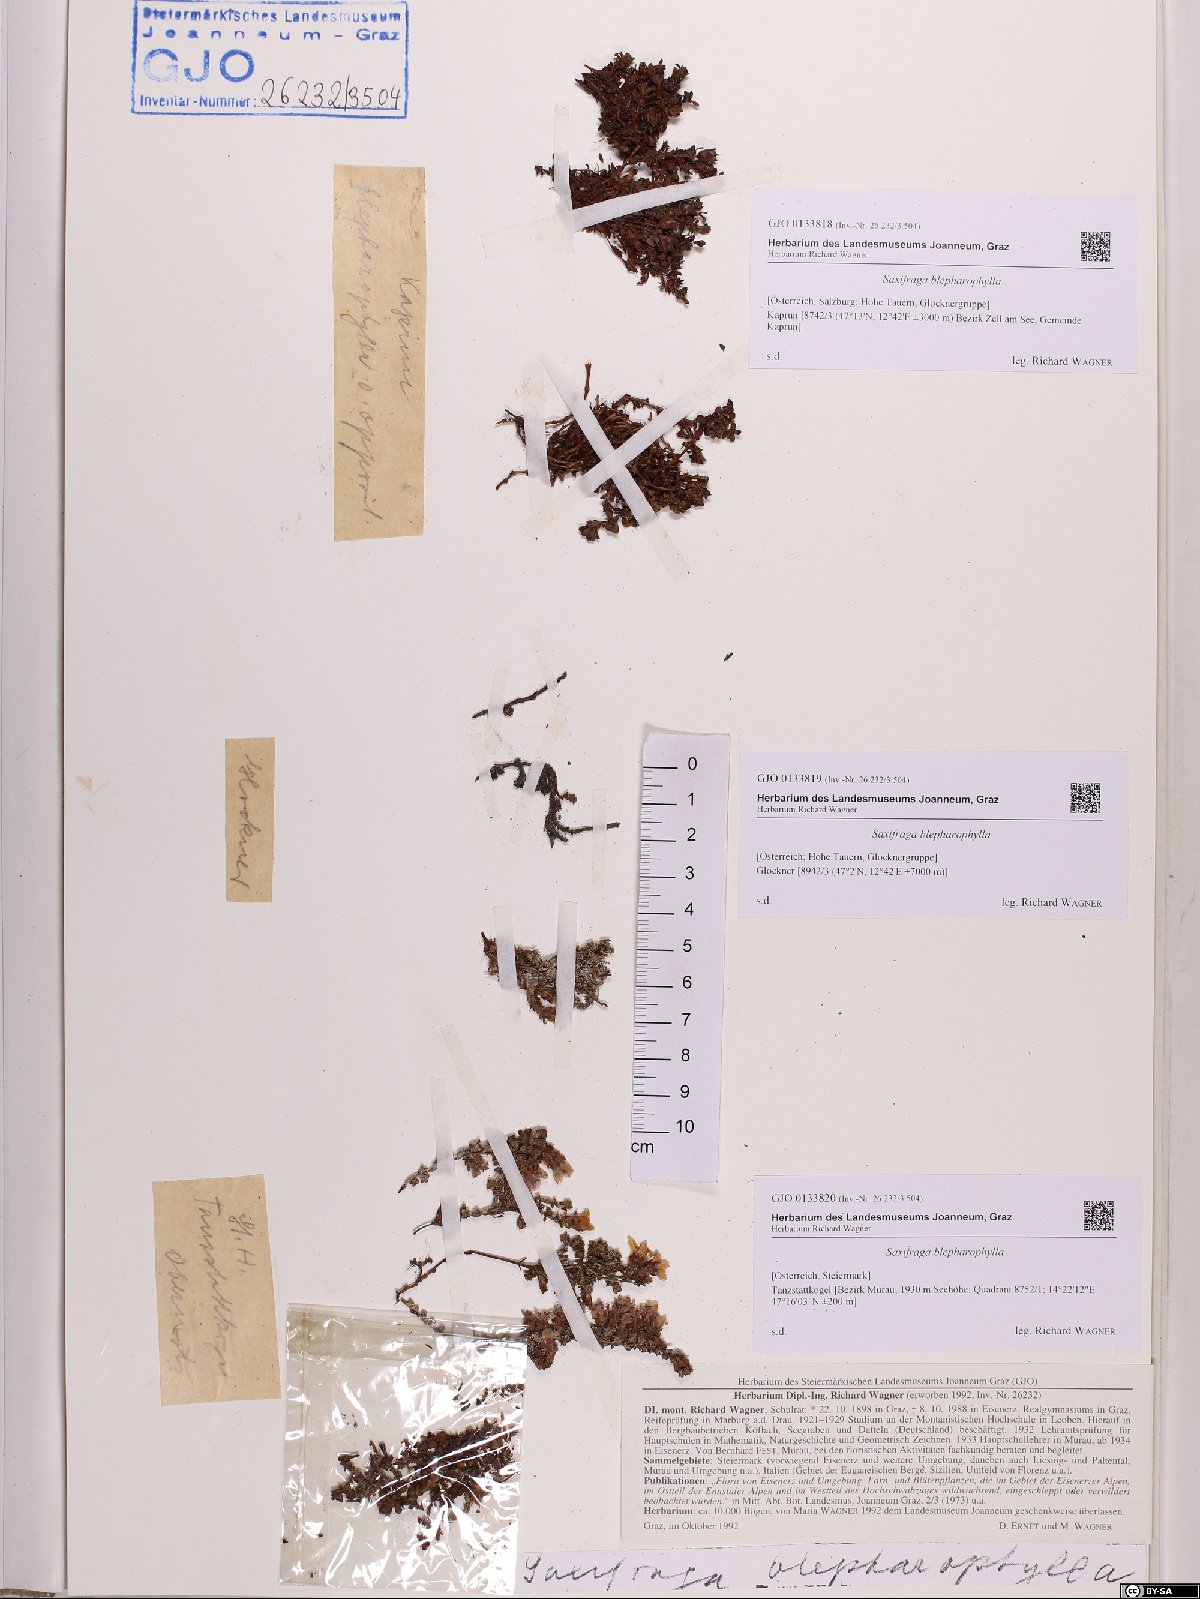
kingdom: Plantae
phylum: Tracheophyta
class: Magnoliopsida
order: Saxifragales
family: Saxifragaceae
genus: Saxifraga
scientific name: Saxifraga oppositifolia
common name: Purple saxifrage
